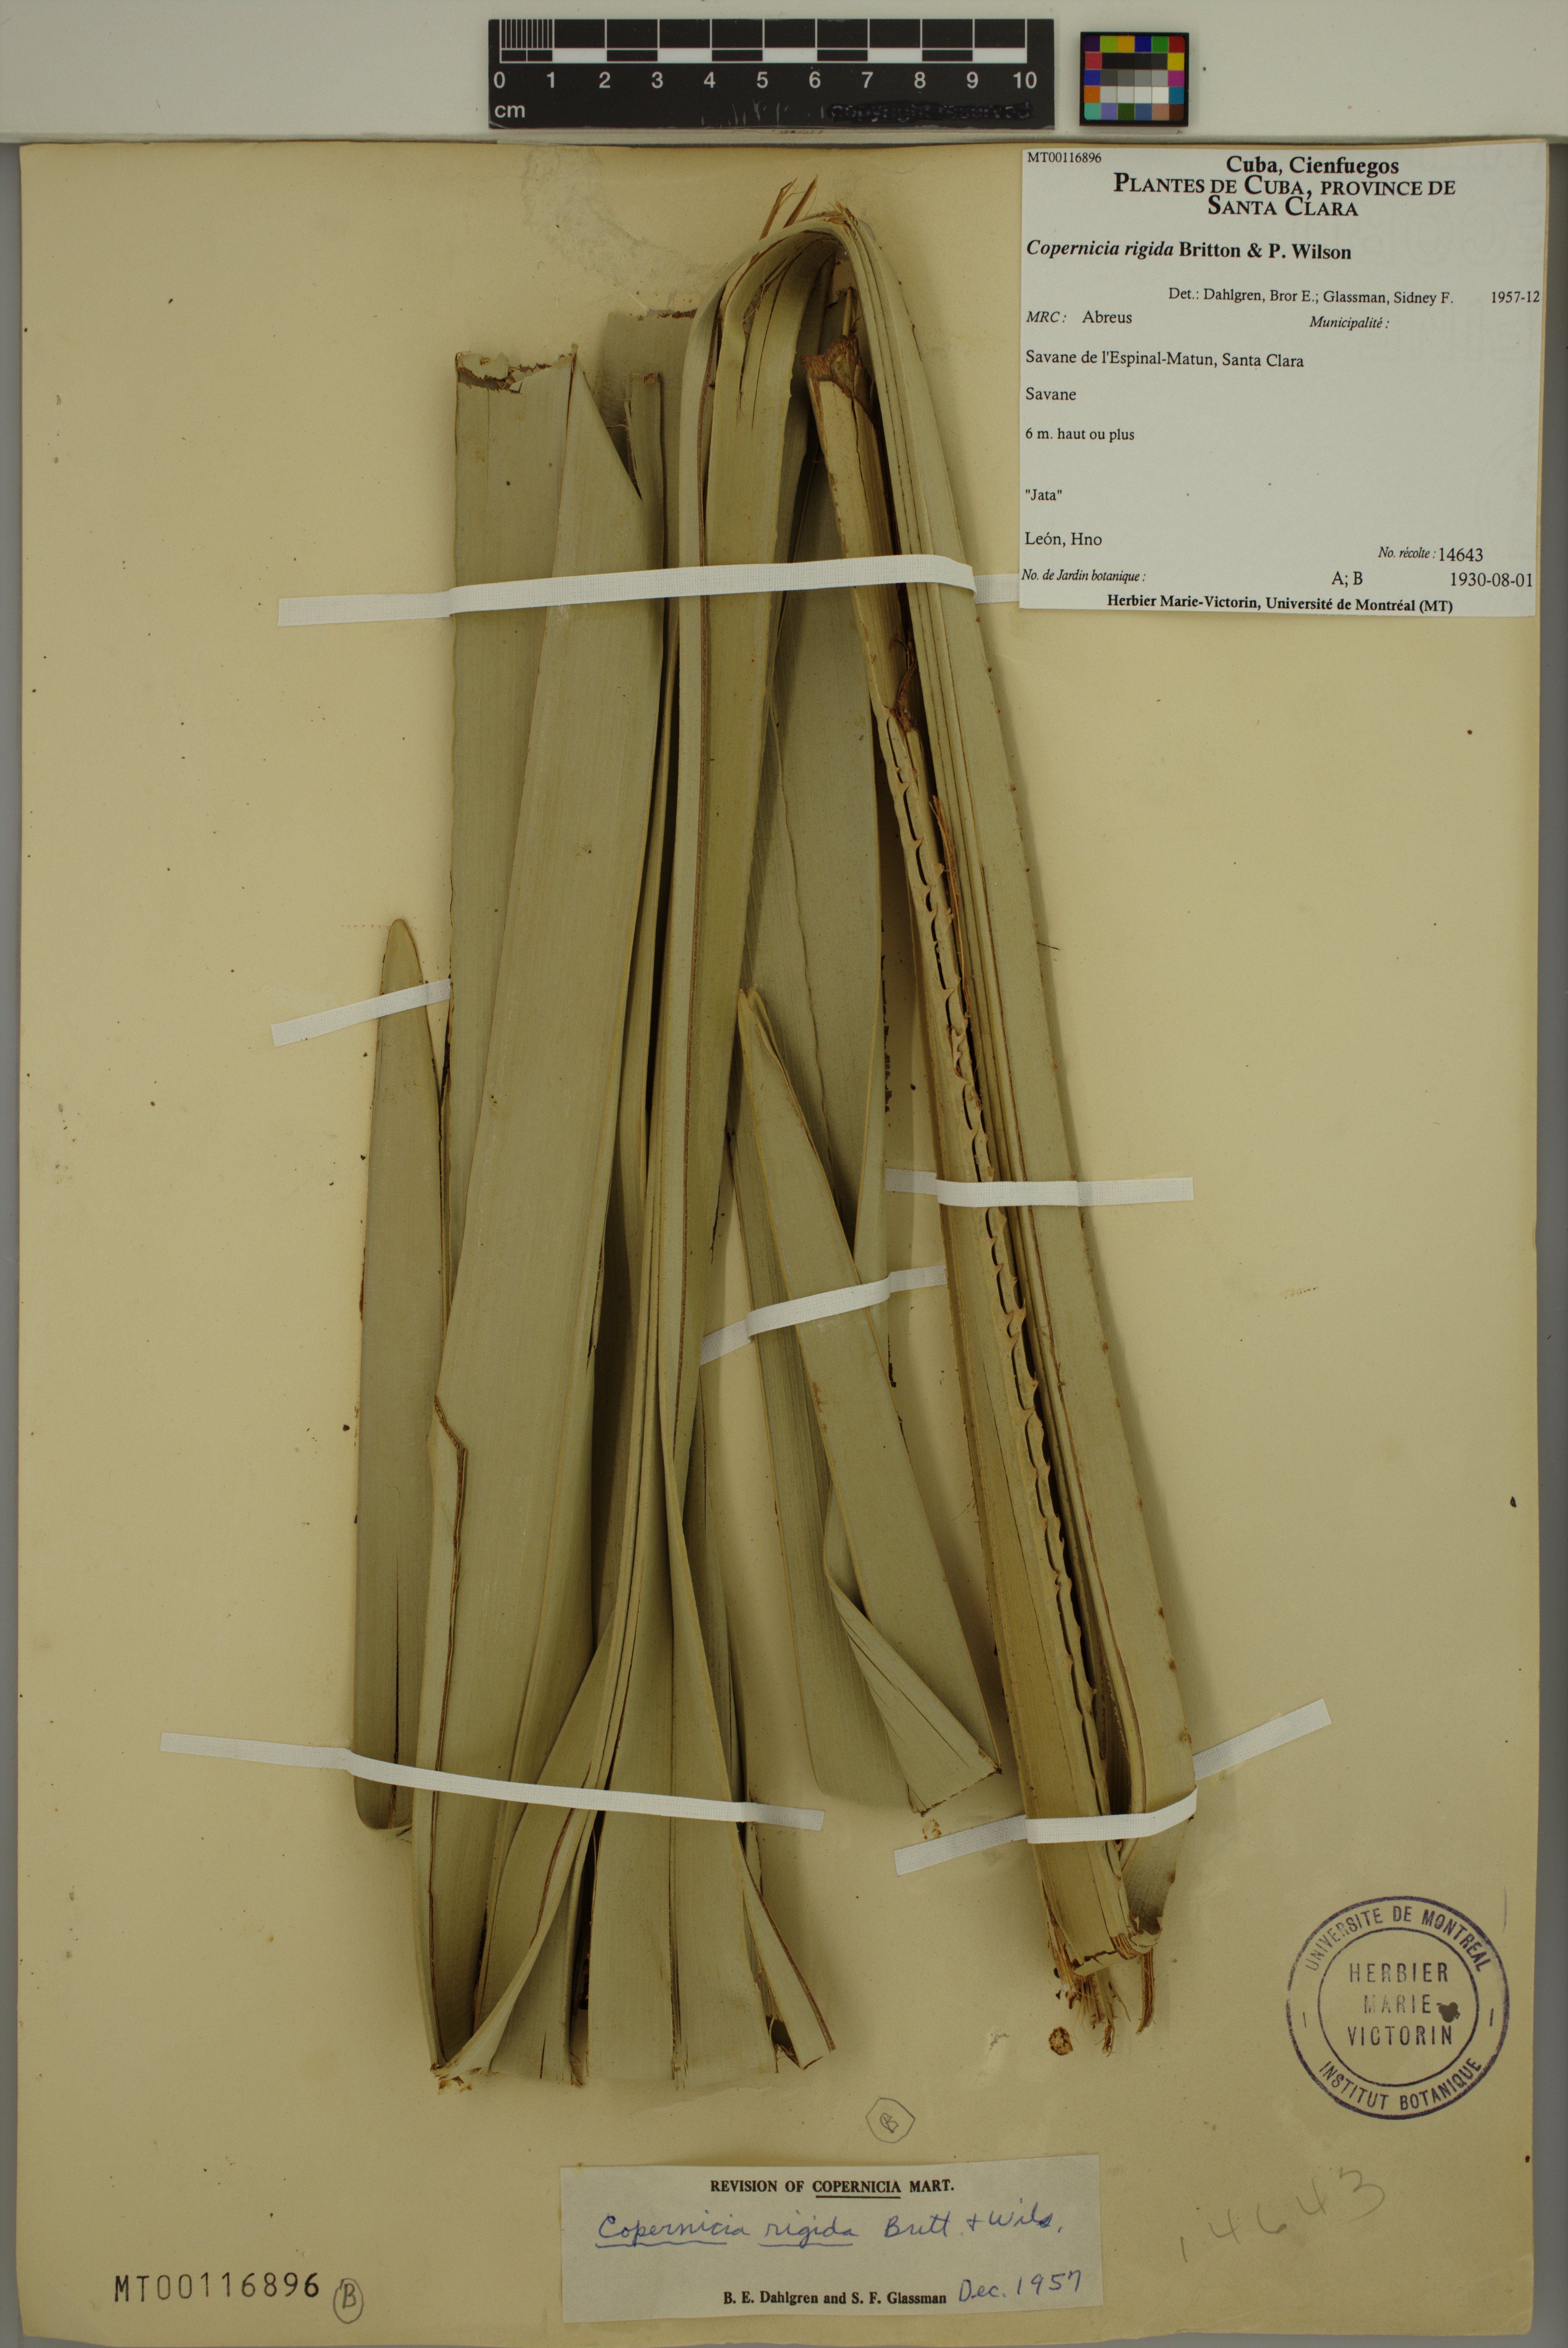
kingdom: Plantae
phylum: Tracheophyta
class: Liliopsida
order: Arecales
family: Arecaceae
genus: Copernicia
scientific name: Copernicia rigida
